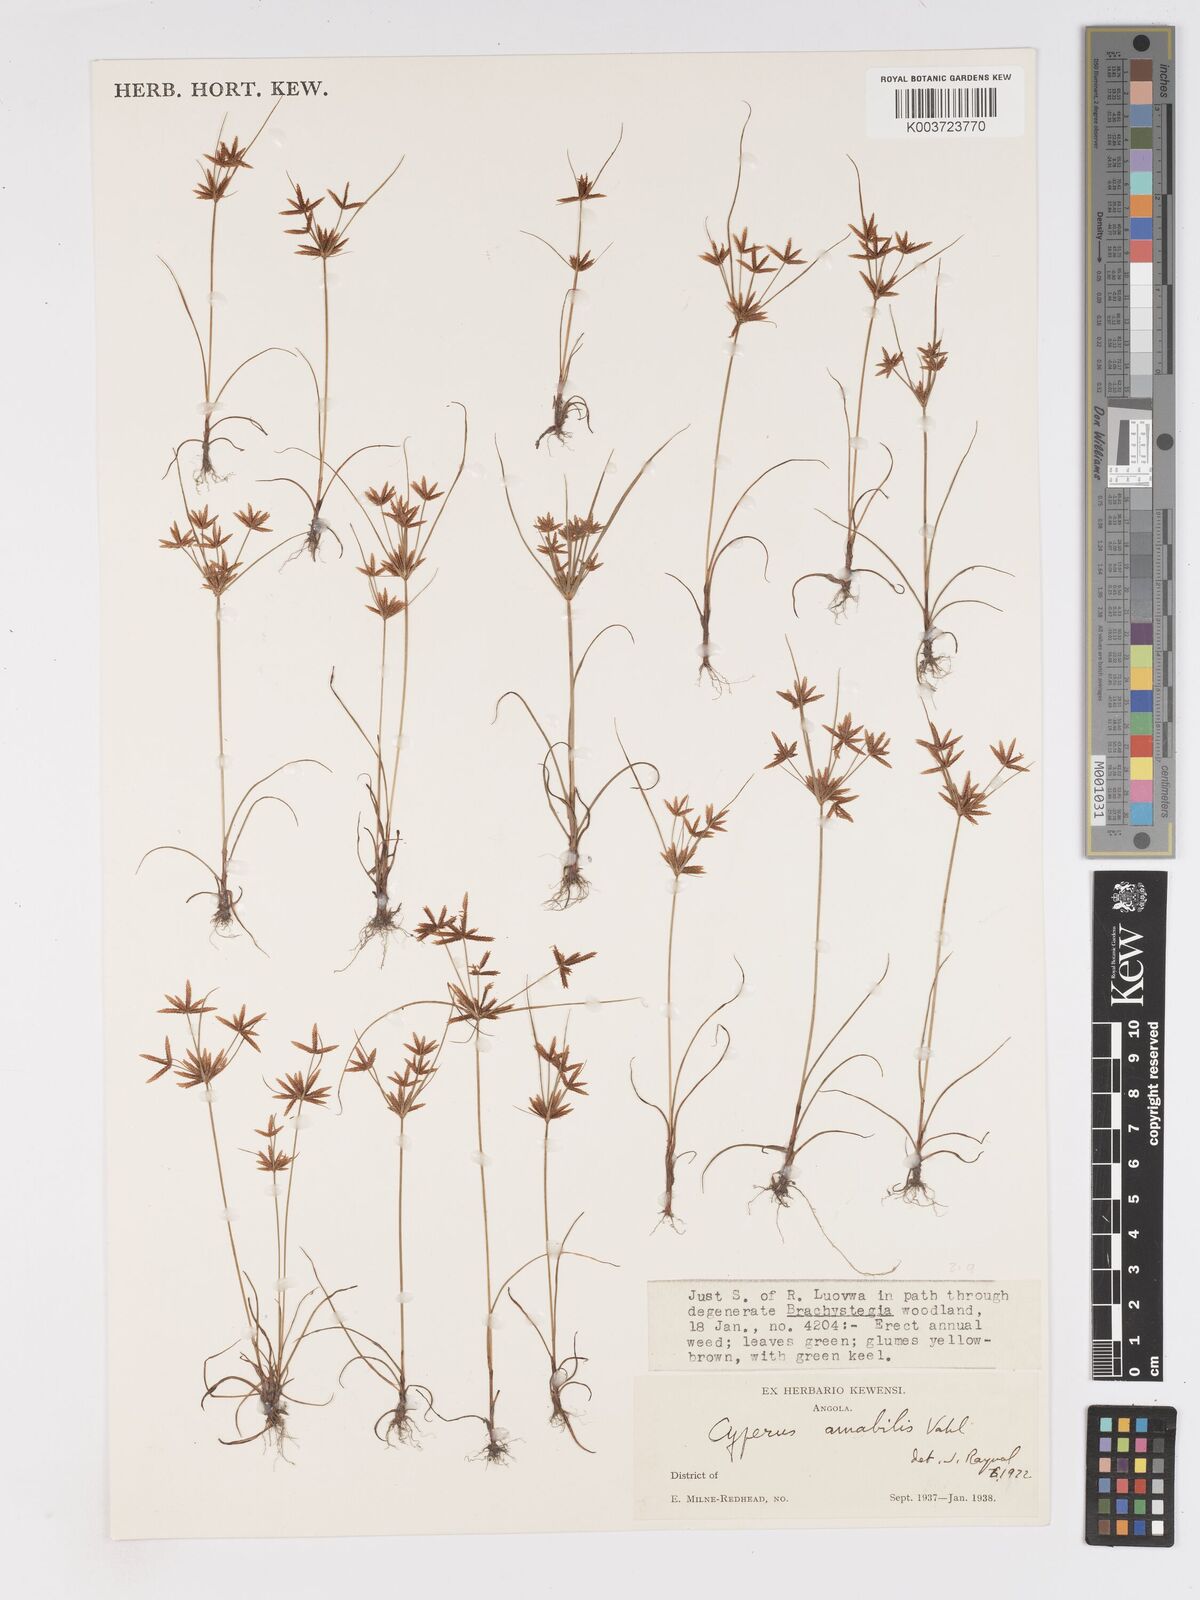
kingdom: Plantae
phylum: Tracheophyta
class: Liliopsida
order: Poales
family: Cyperaceae
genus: Cyperus
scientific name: Cyperus amabilis
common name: Foothill flat sedge
